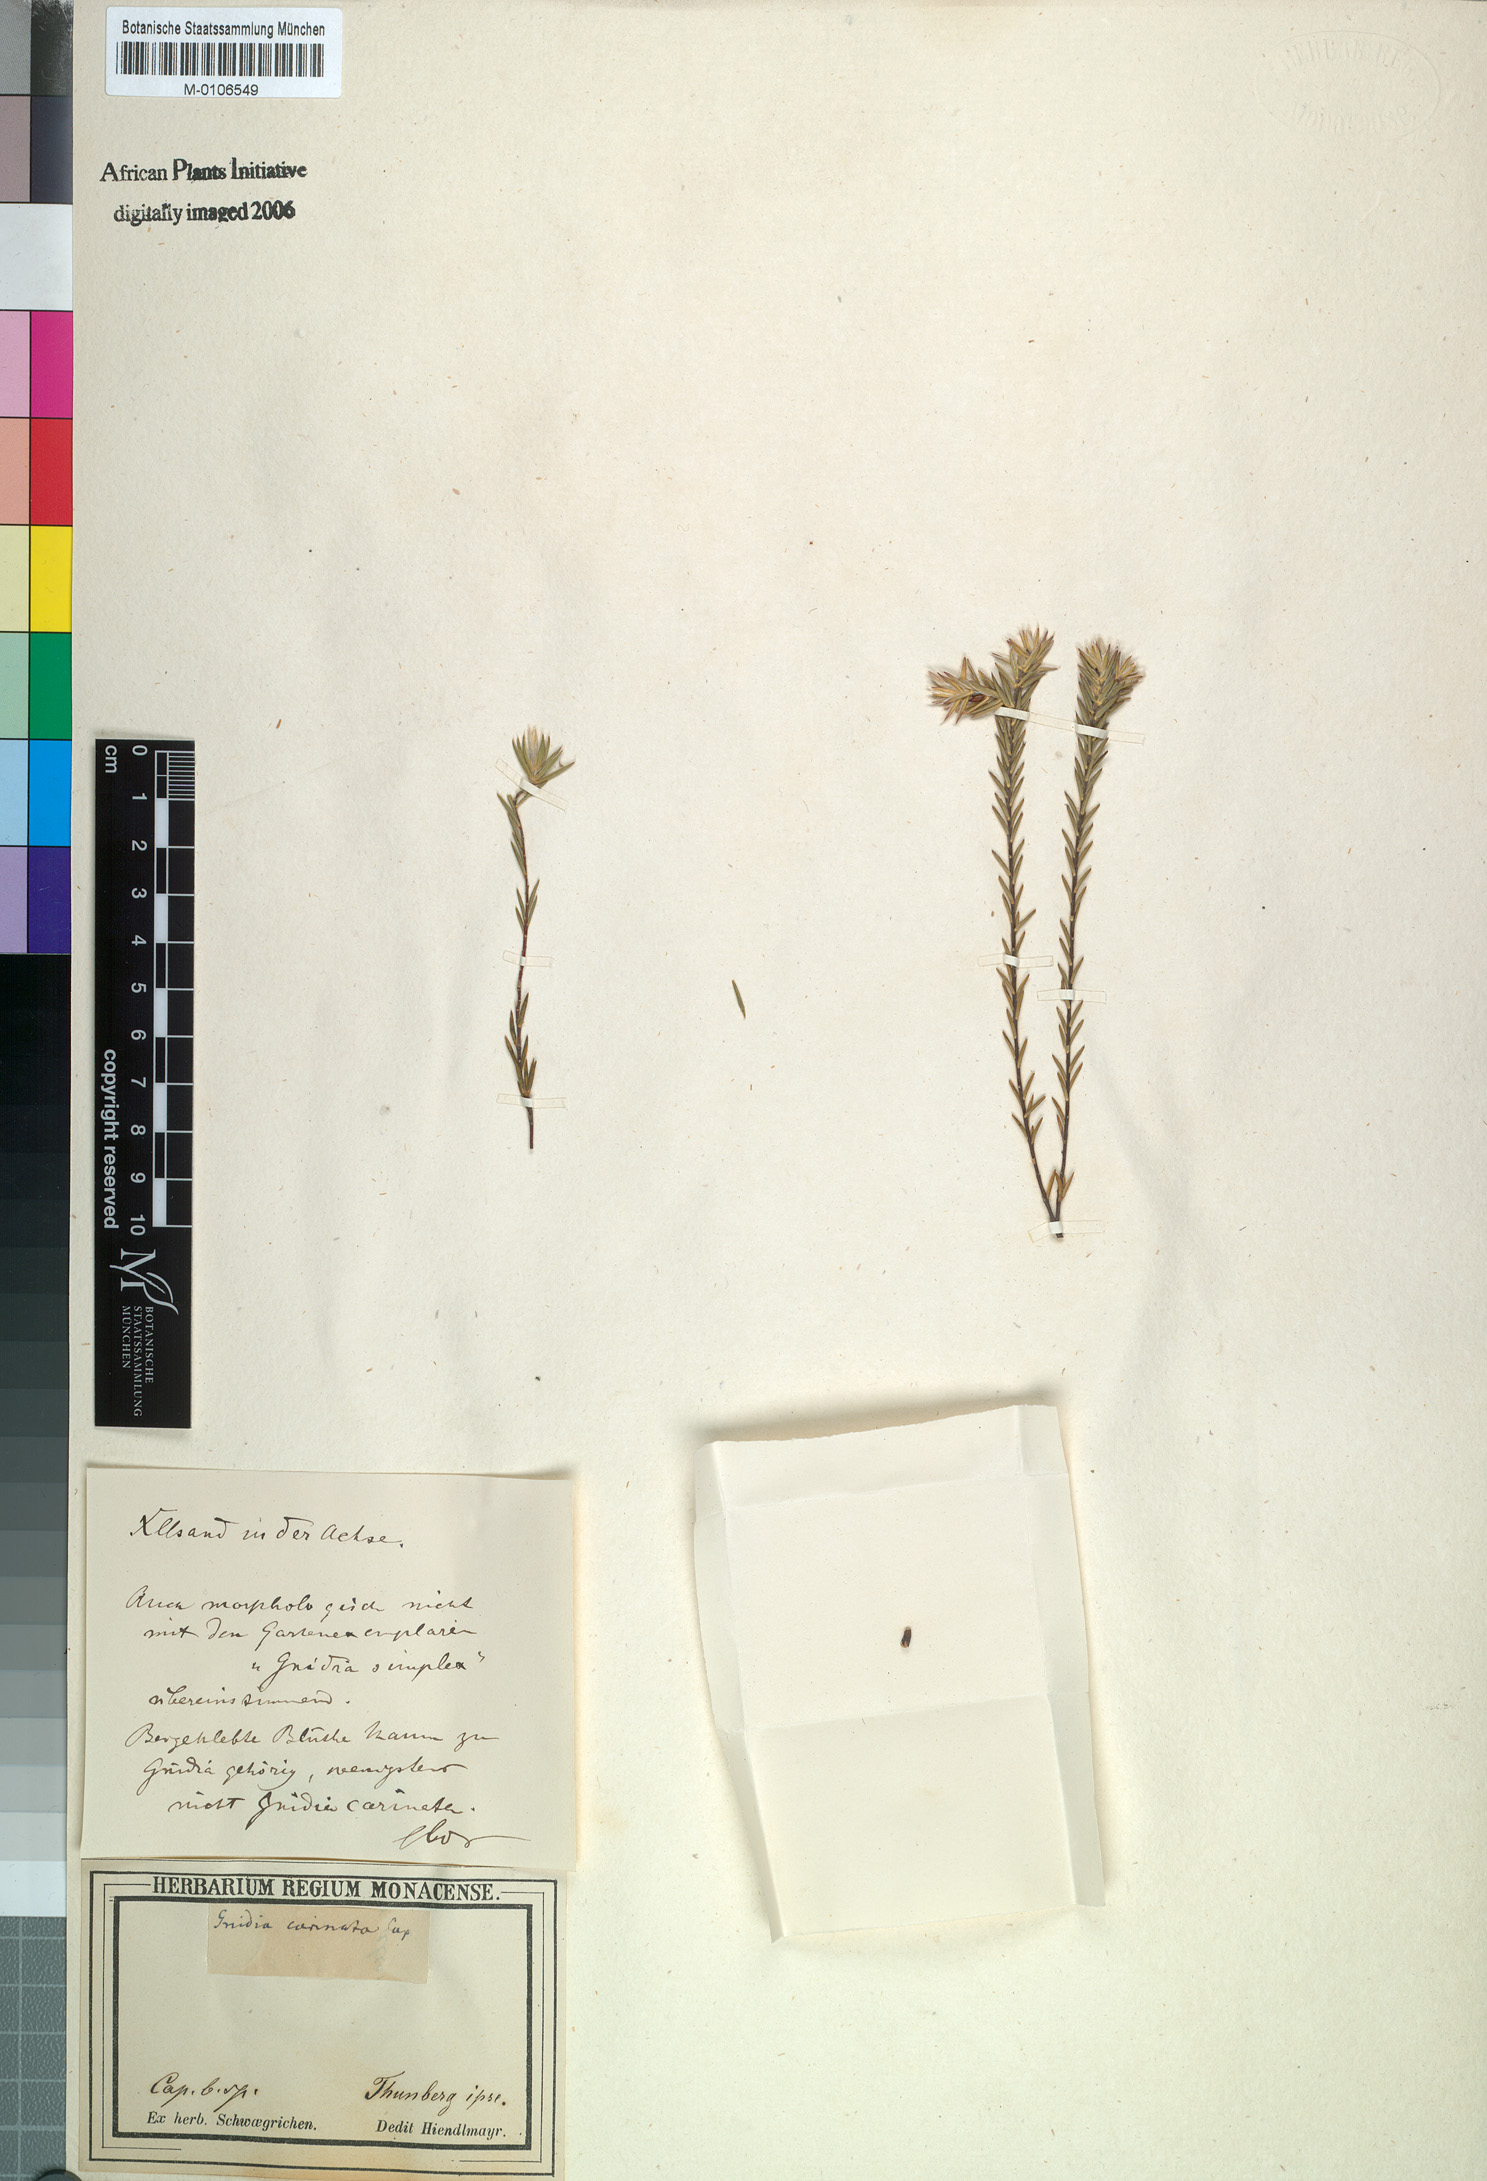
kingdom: Plantae
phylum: Tracheophyta
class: Magnoliopsida
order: Malvales
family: Thymelaeaceae
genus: Gnidia
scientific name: Gnidia squarrosa
